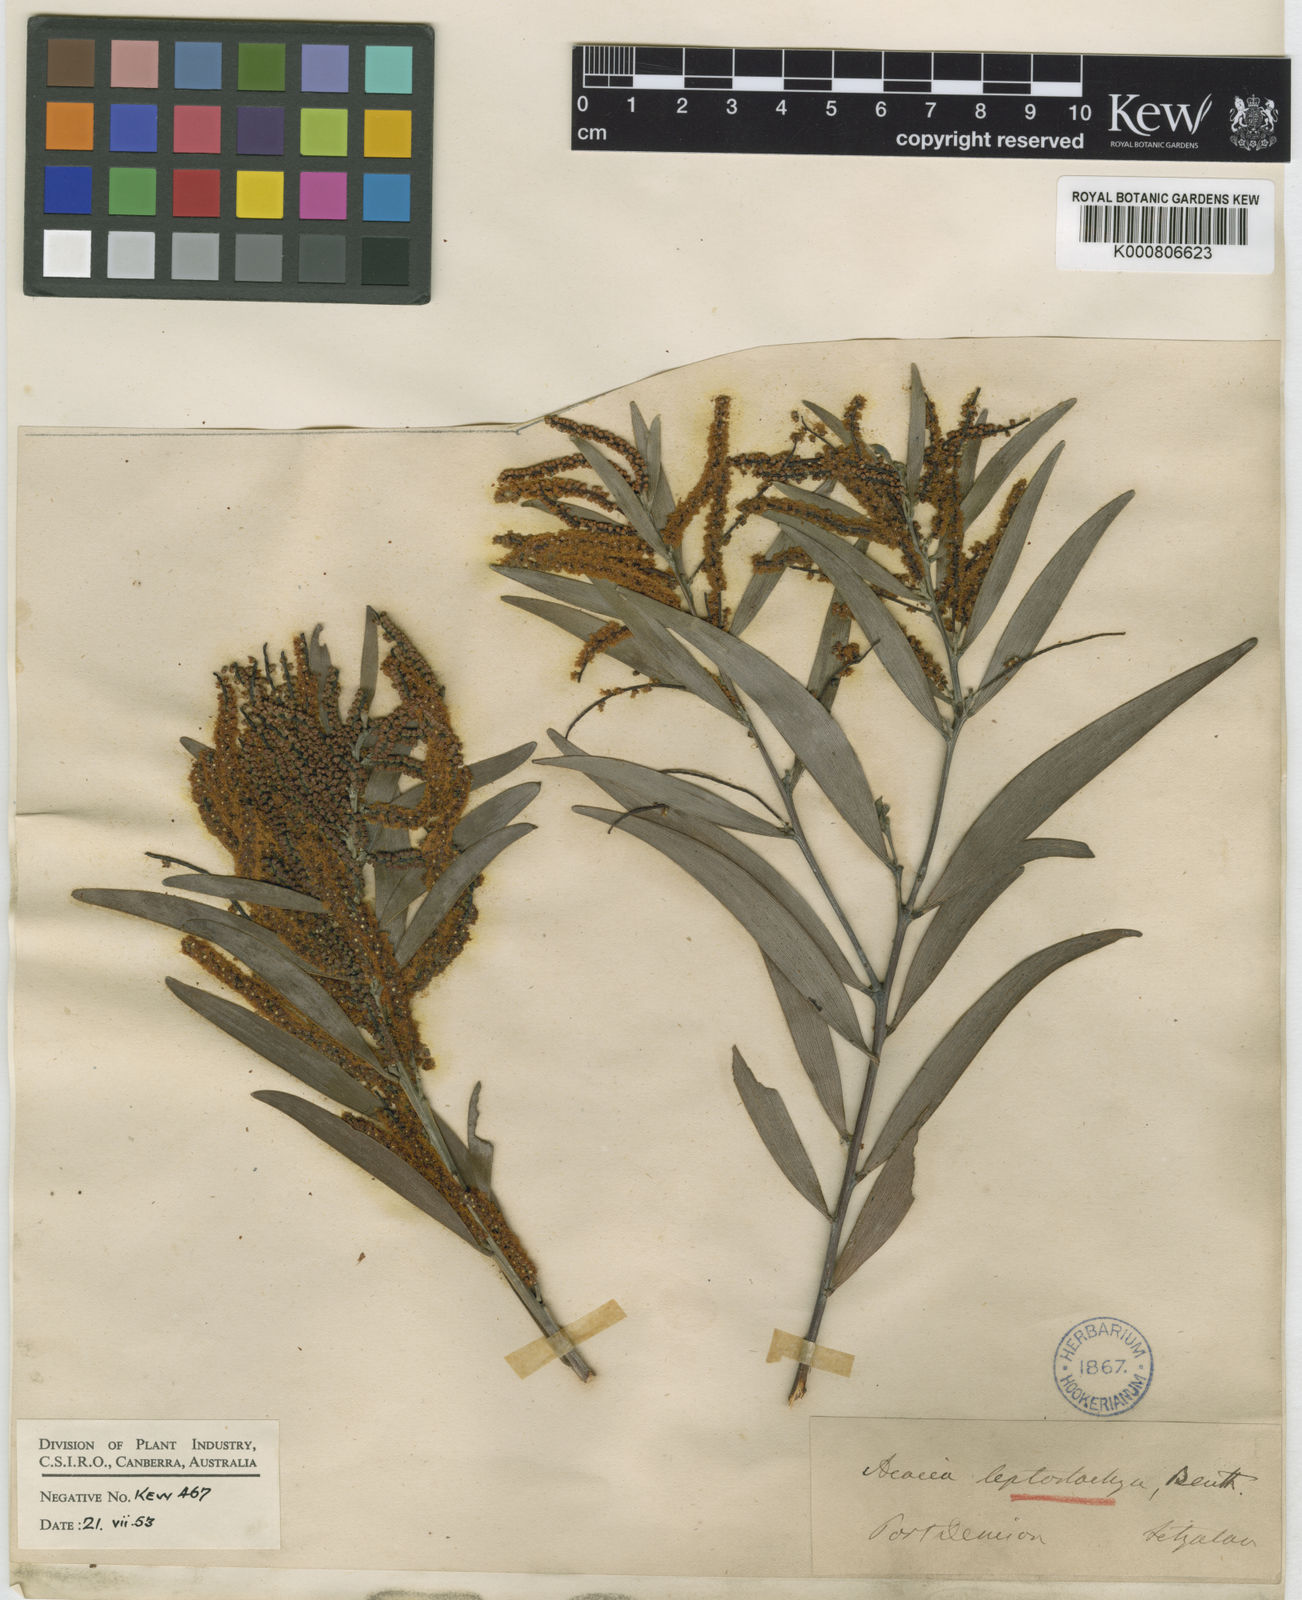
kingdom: Plantae
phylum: Tracheophyta
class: Magnoliopsida
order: Fabales
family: Fabaceae
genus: Acacia
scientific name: Acacia leptostachya
